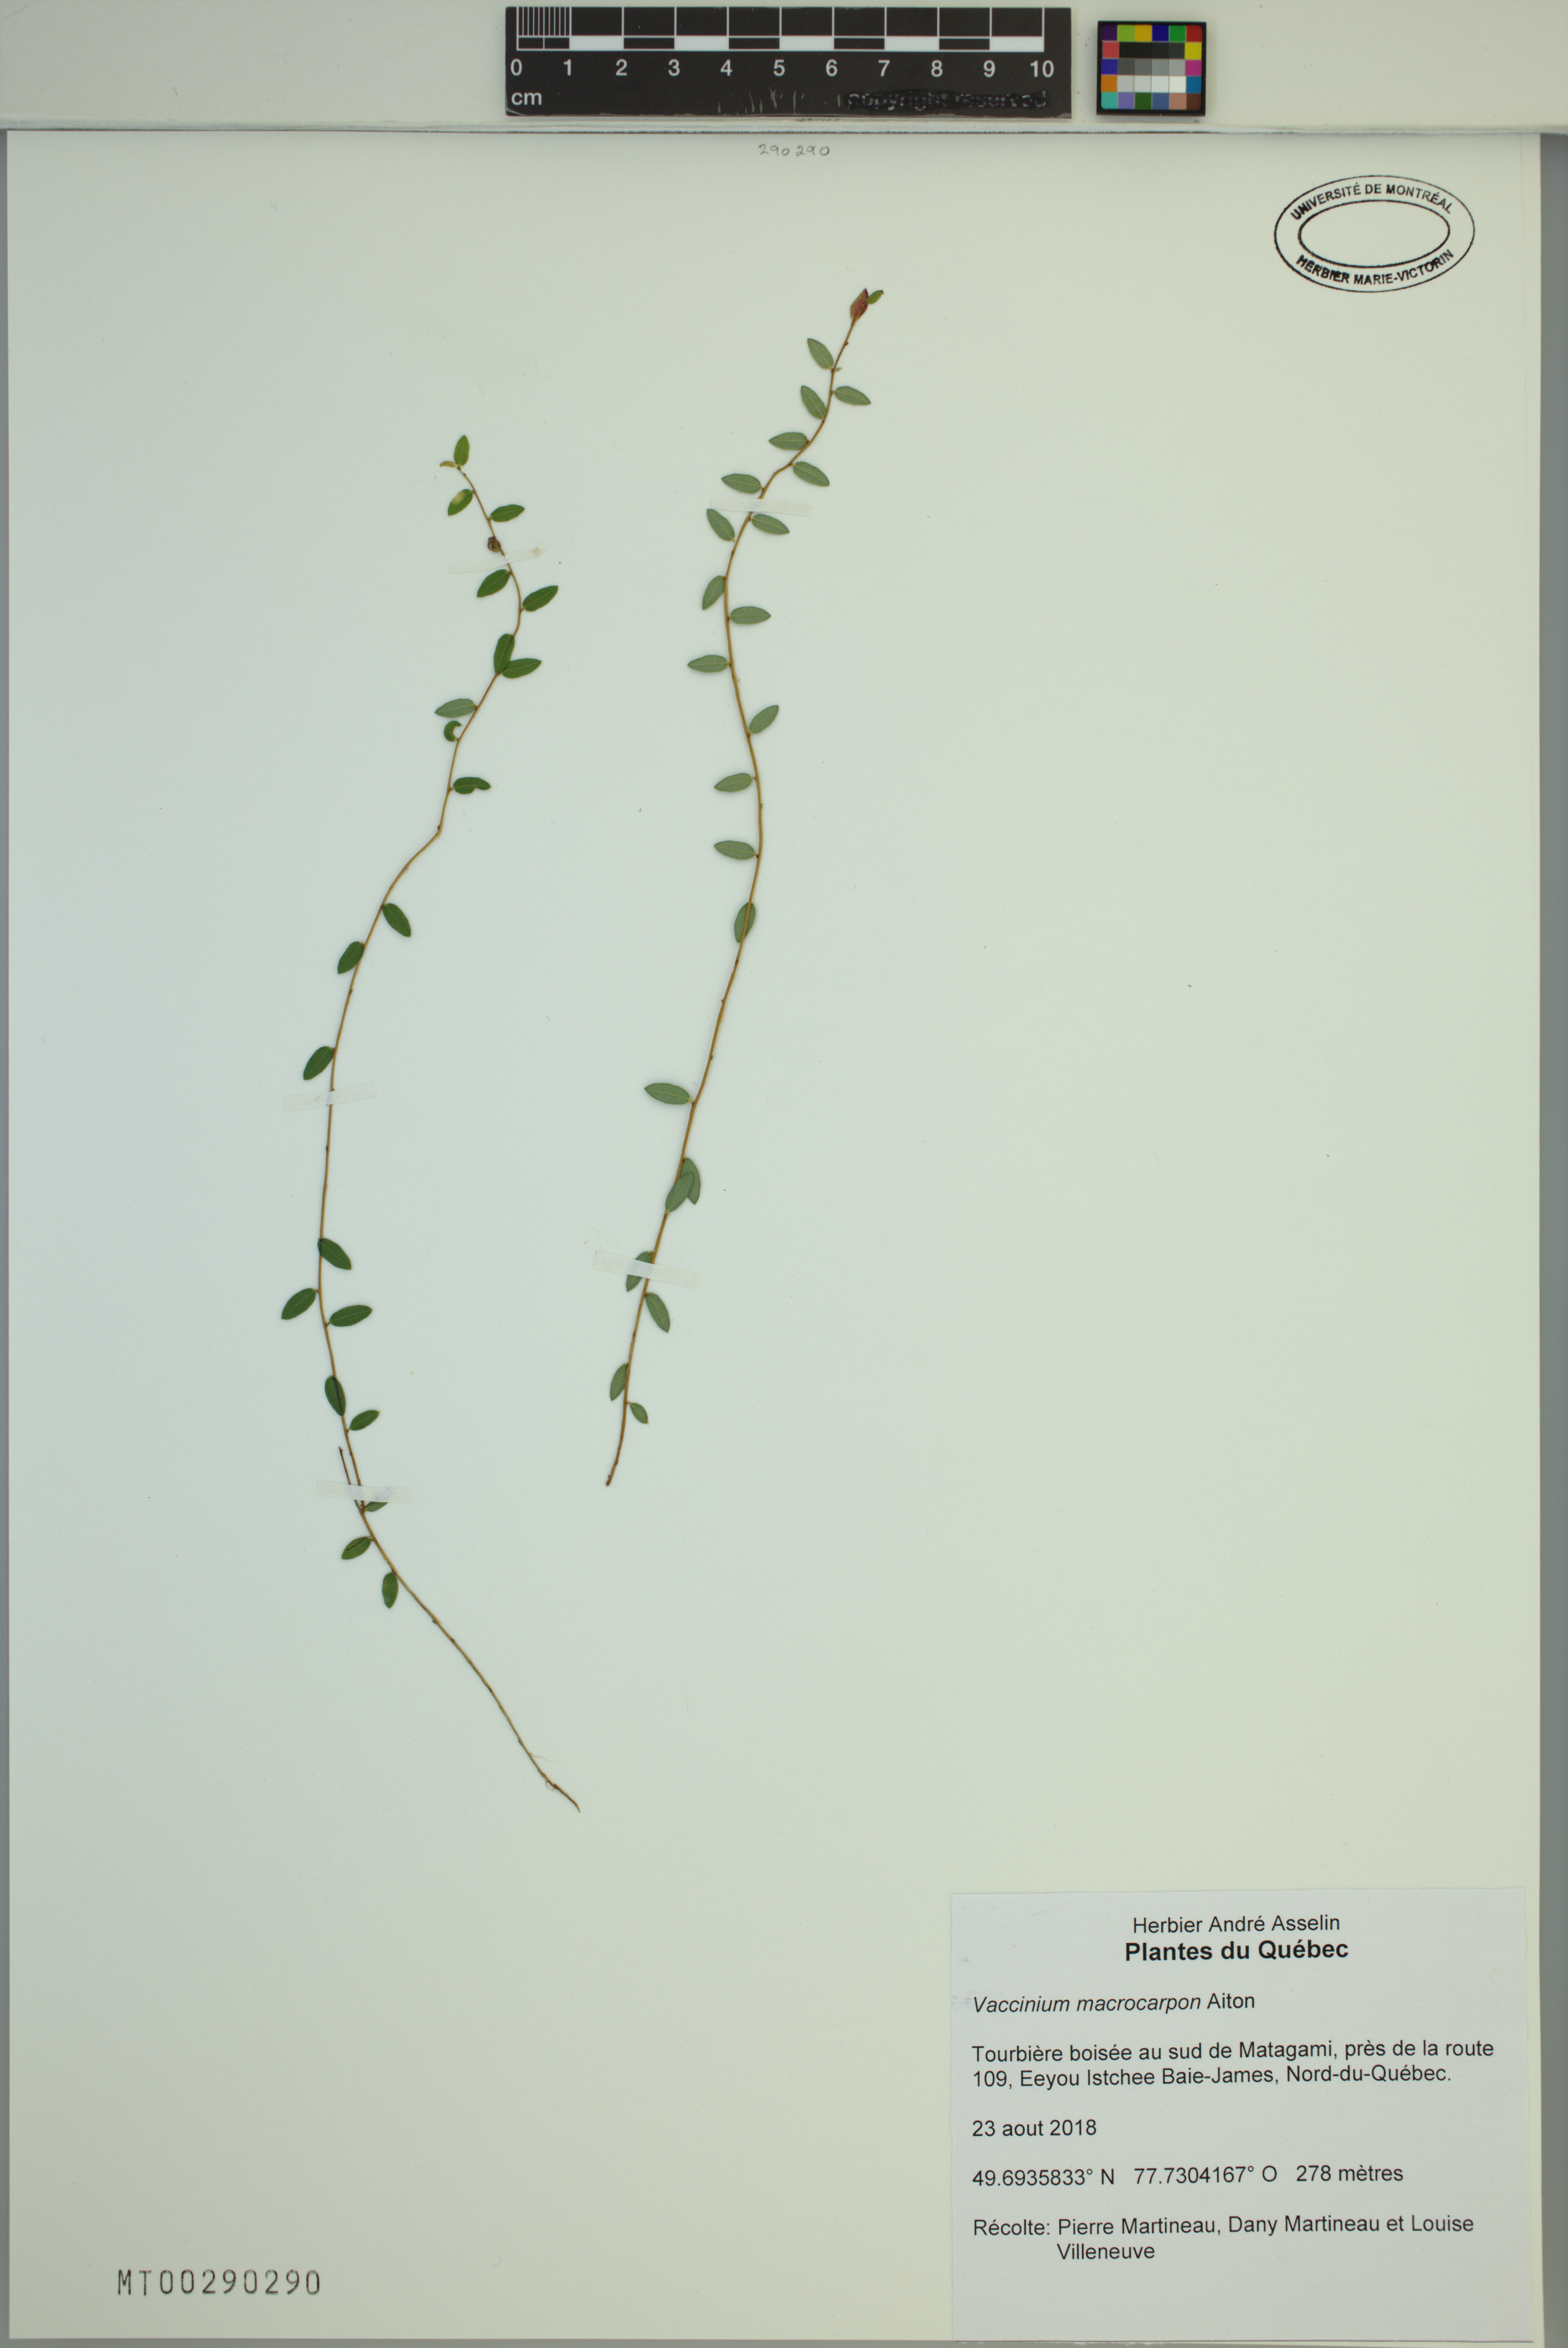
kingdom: Plantae
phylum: Tracheophyta
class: Magnoliopsida
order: Ericales
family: Ericaceae
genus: Vaccinium
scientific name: Vaccinium macrocarpon
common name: American cranberry
